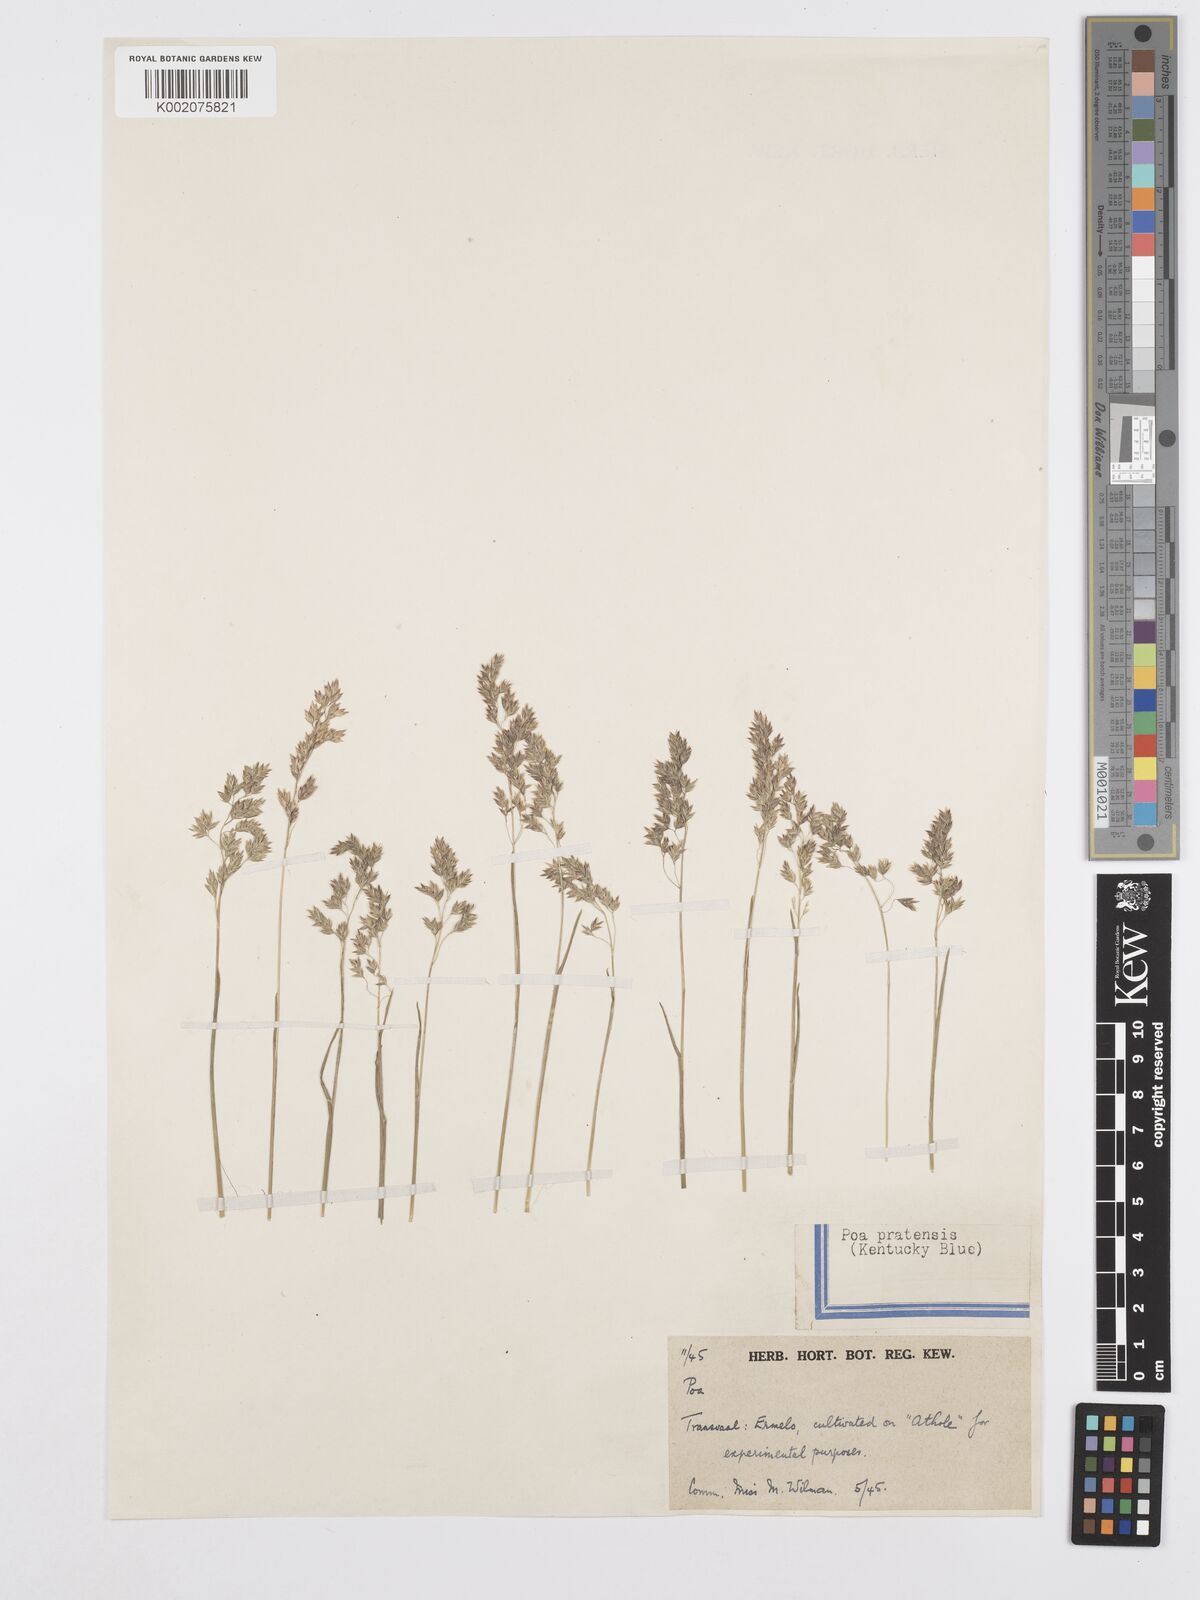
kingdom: Plantae
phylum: Tracheophyta
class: Liliopsida
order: Poales
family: Poaceae
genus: Poa
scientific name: Poa pratensis
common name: Kentucky bluegrass
